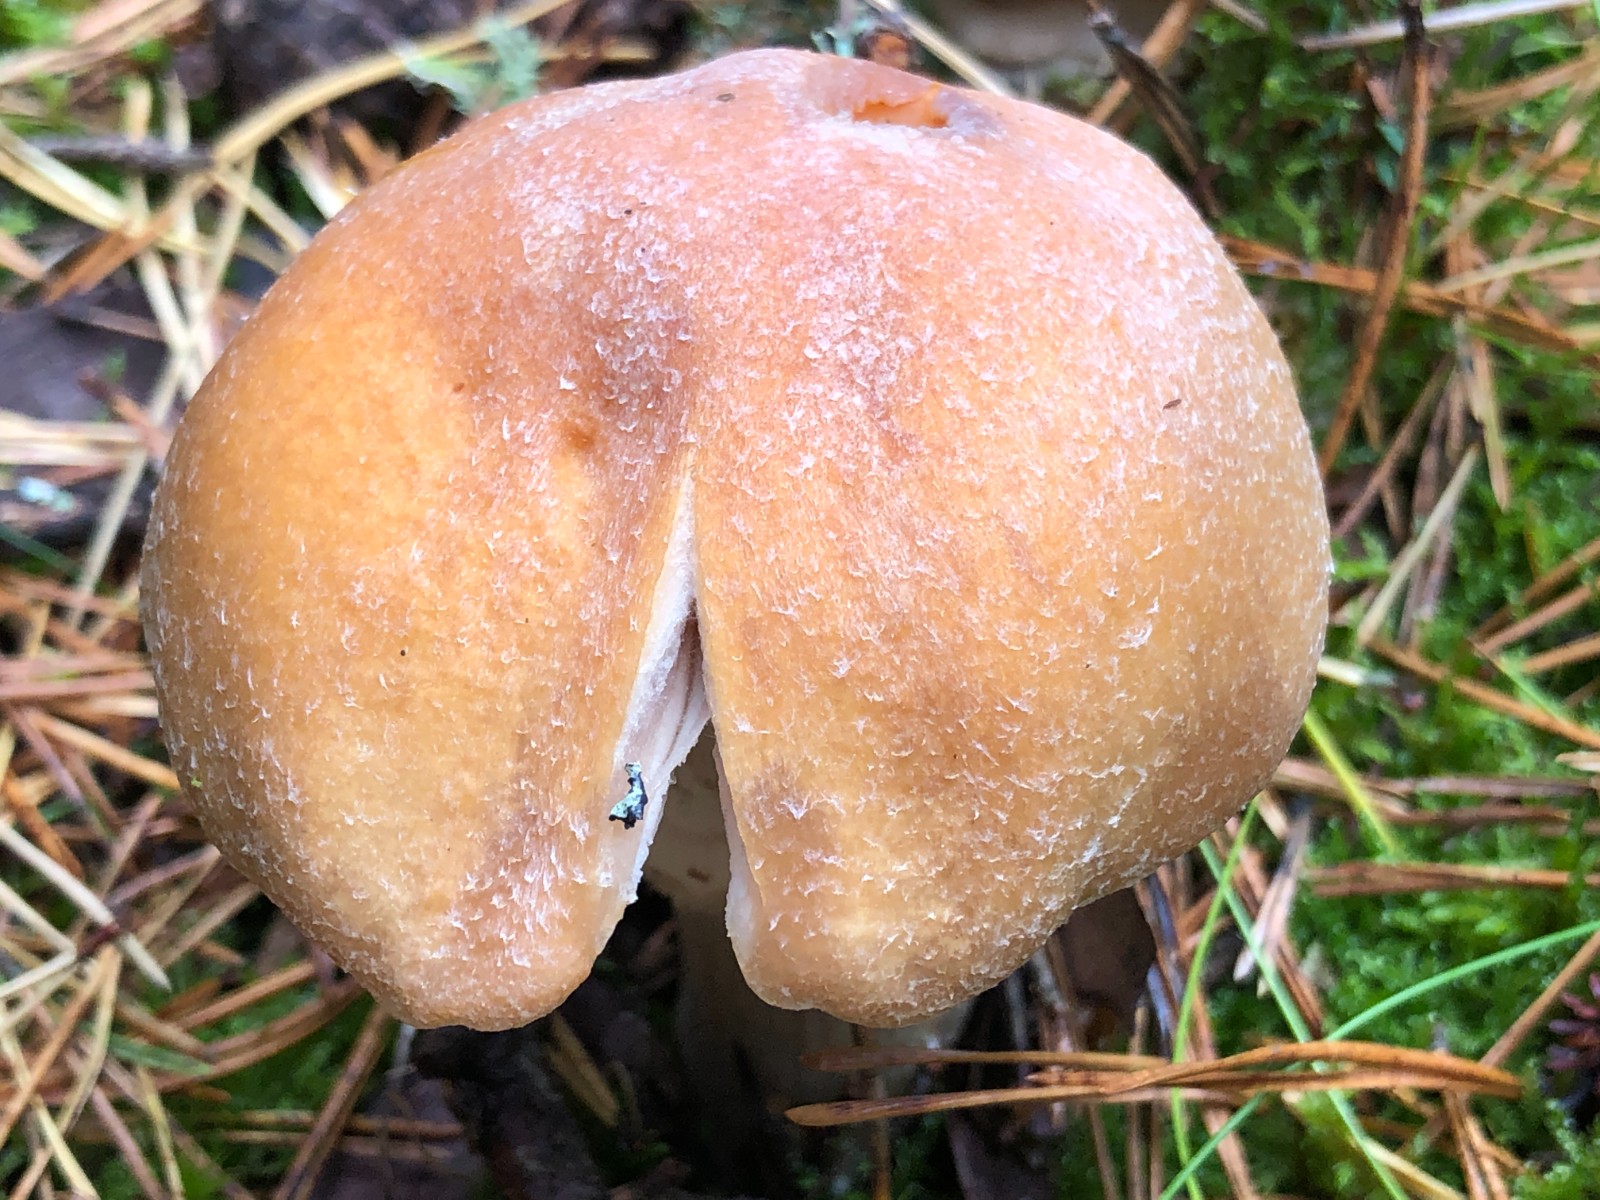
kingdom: Fungi
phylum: Basidiomycota
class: Agaricomycetes
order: Agaricales
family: Cortinariaceae
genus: Cortinarius
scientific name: Cortinarius caperatus
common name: klidhat
